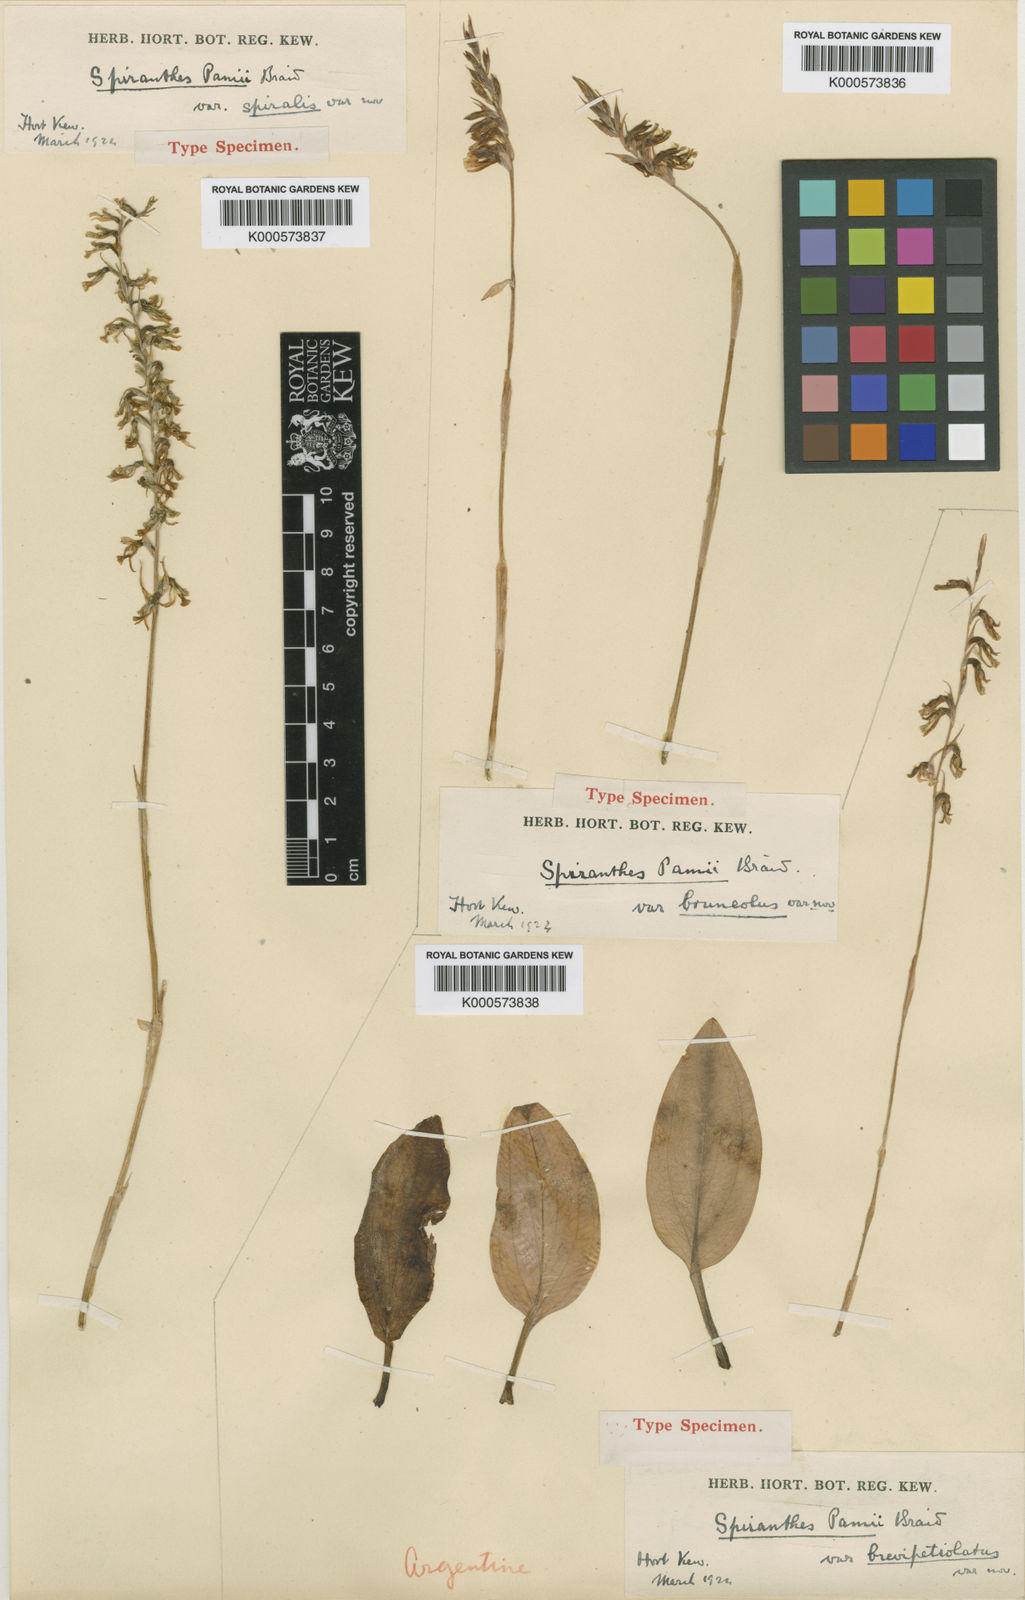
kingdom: Plantae
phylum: Tracheophyta
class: Liliopsida
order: Asparagales
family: Orchidaceae
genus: Cyclopogon
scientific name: Cyclopogon lindleyanus
